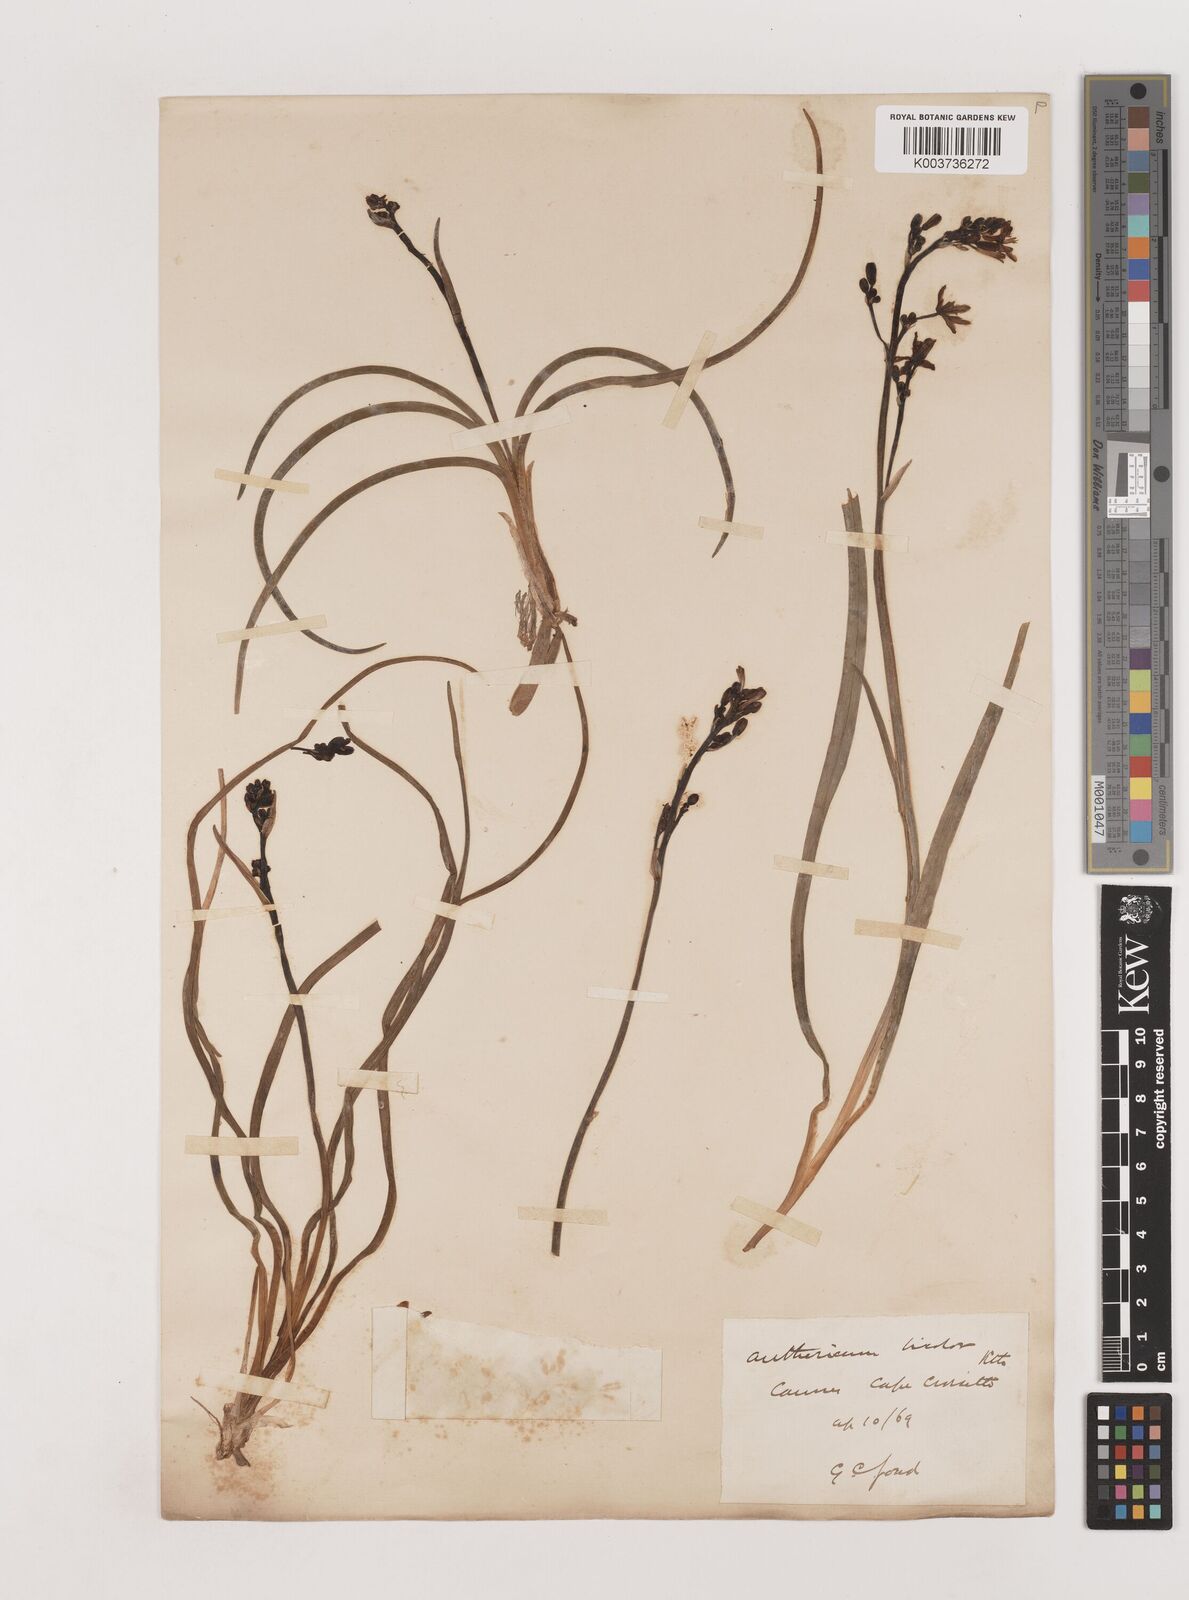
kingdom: Plantae
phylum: Tracheophyta
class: Liliopsida
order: Asparagales
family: Asphodelaceae
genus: Simethis
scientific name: Simethis mattiazzii
